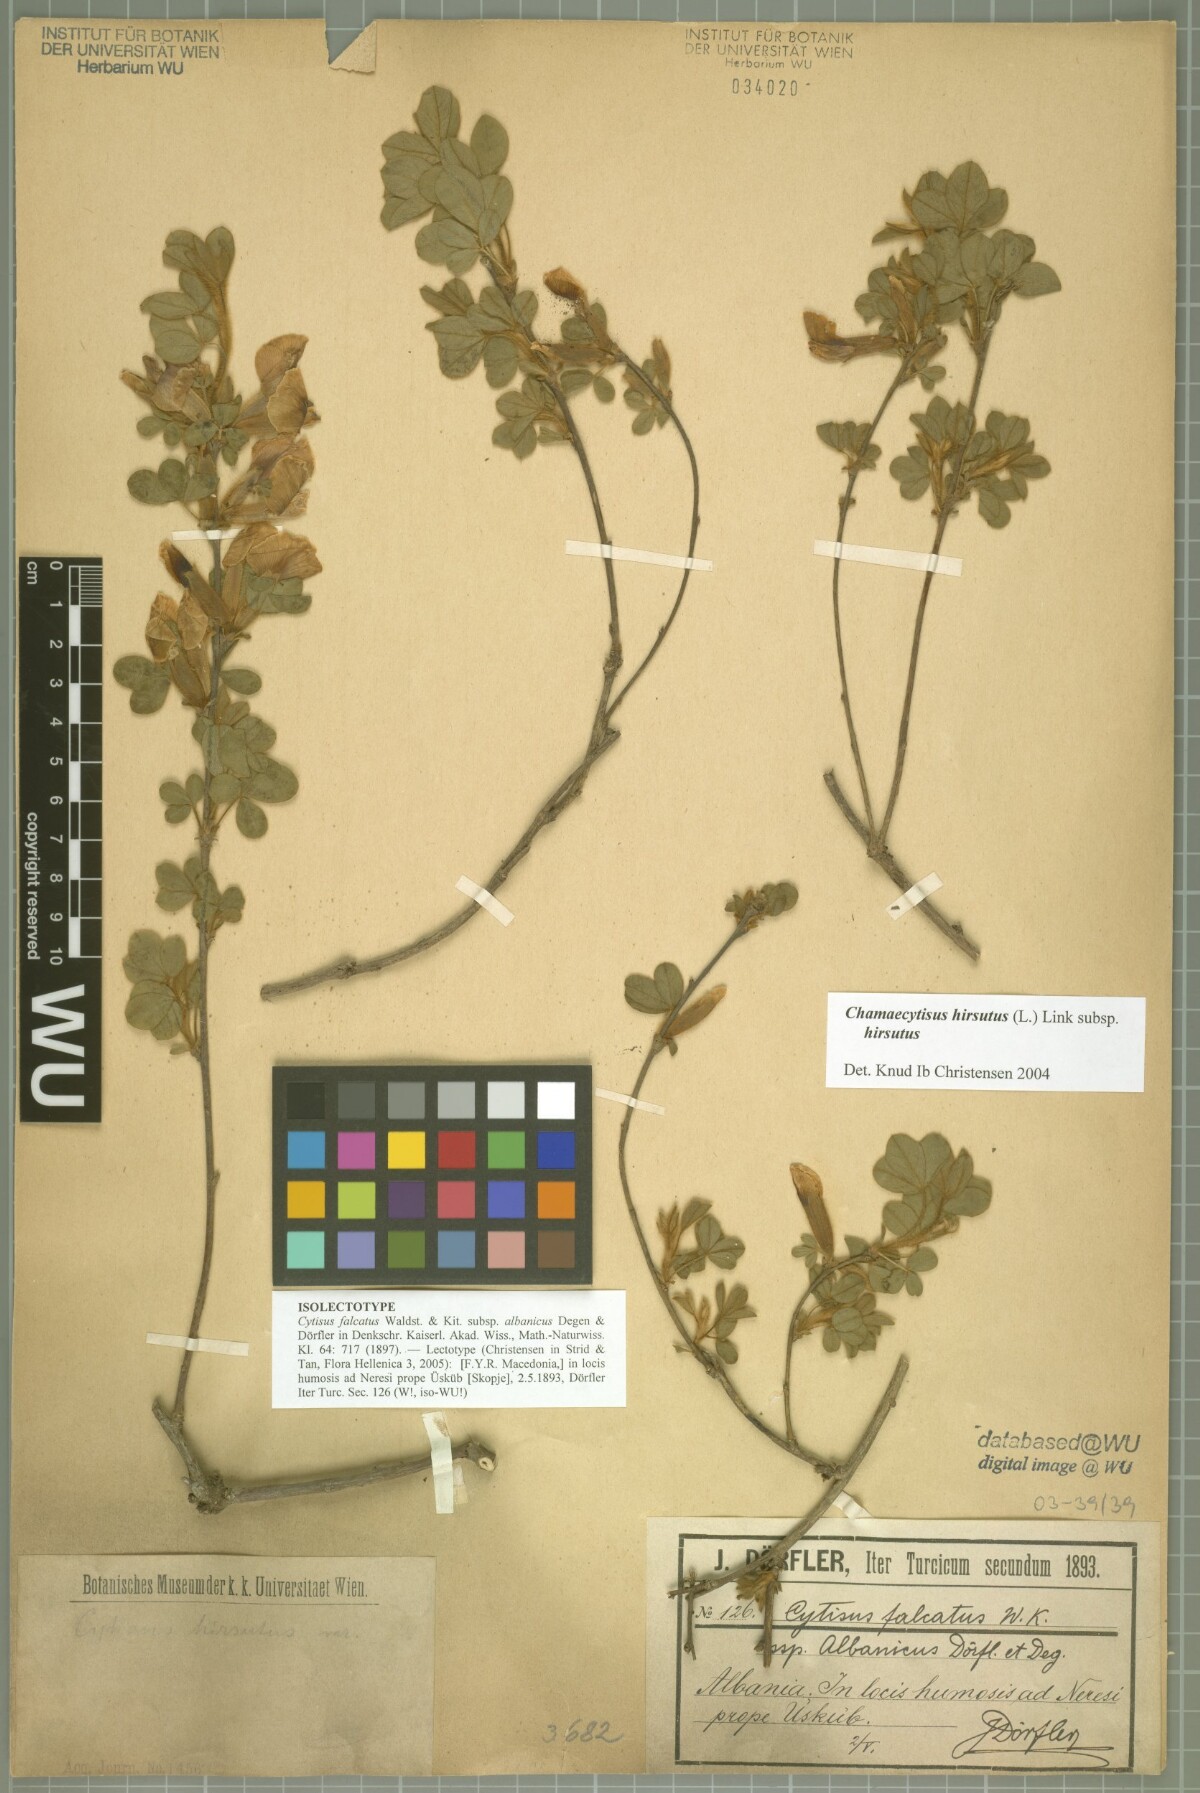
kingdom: Plantae
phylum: Tracheophyta
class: Magnoliopsida
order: Fabales
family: Fabaceae
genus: Chamaecytisus
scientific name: Chamaecytisus triflorus
